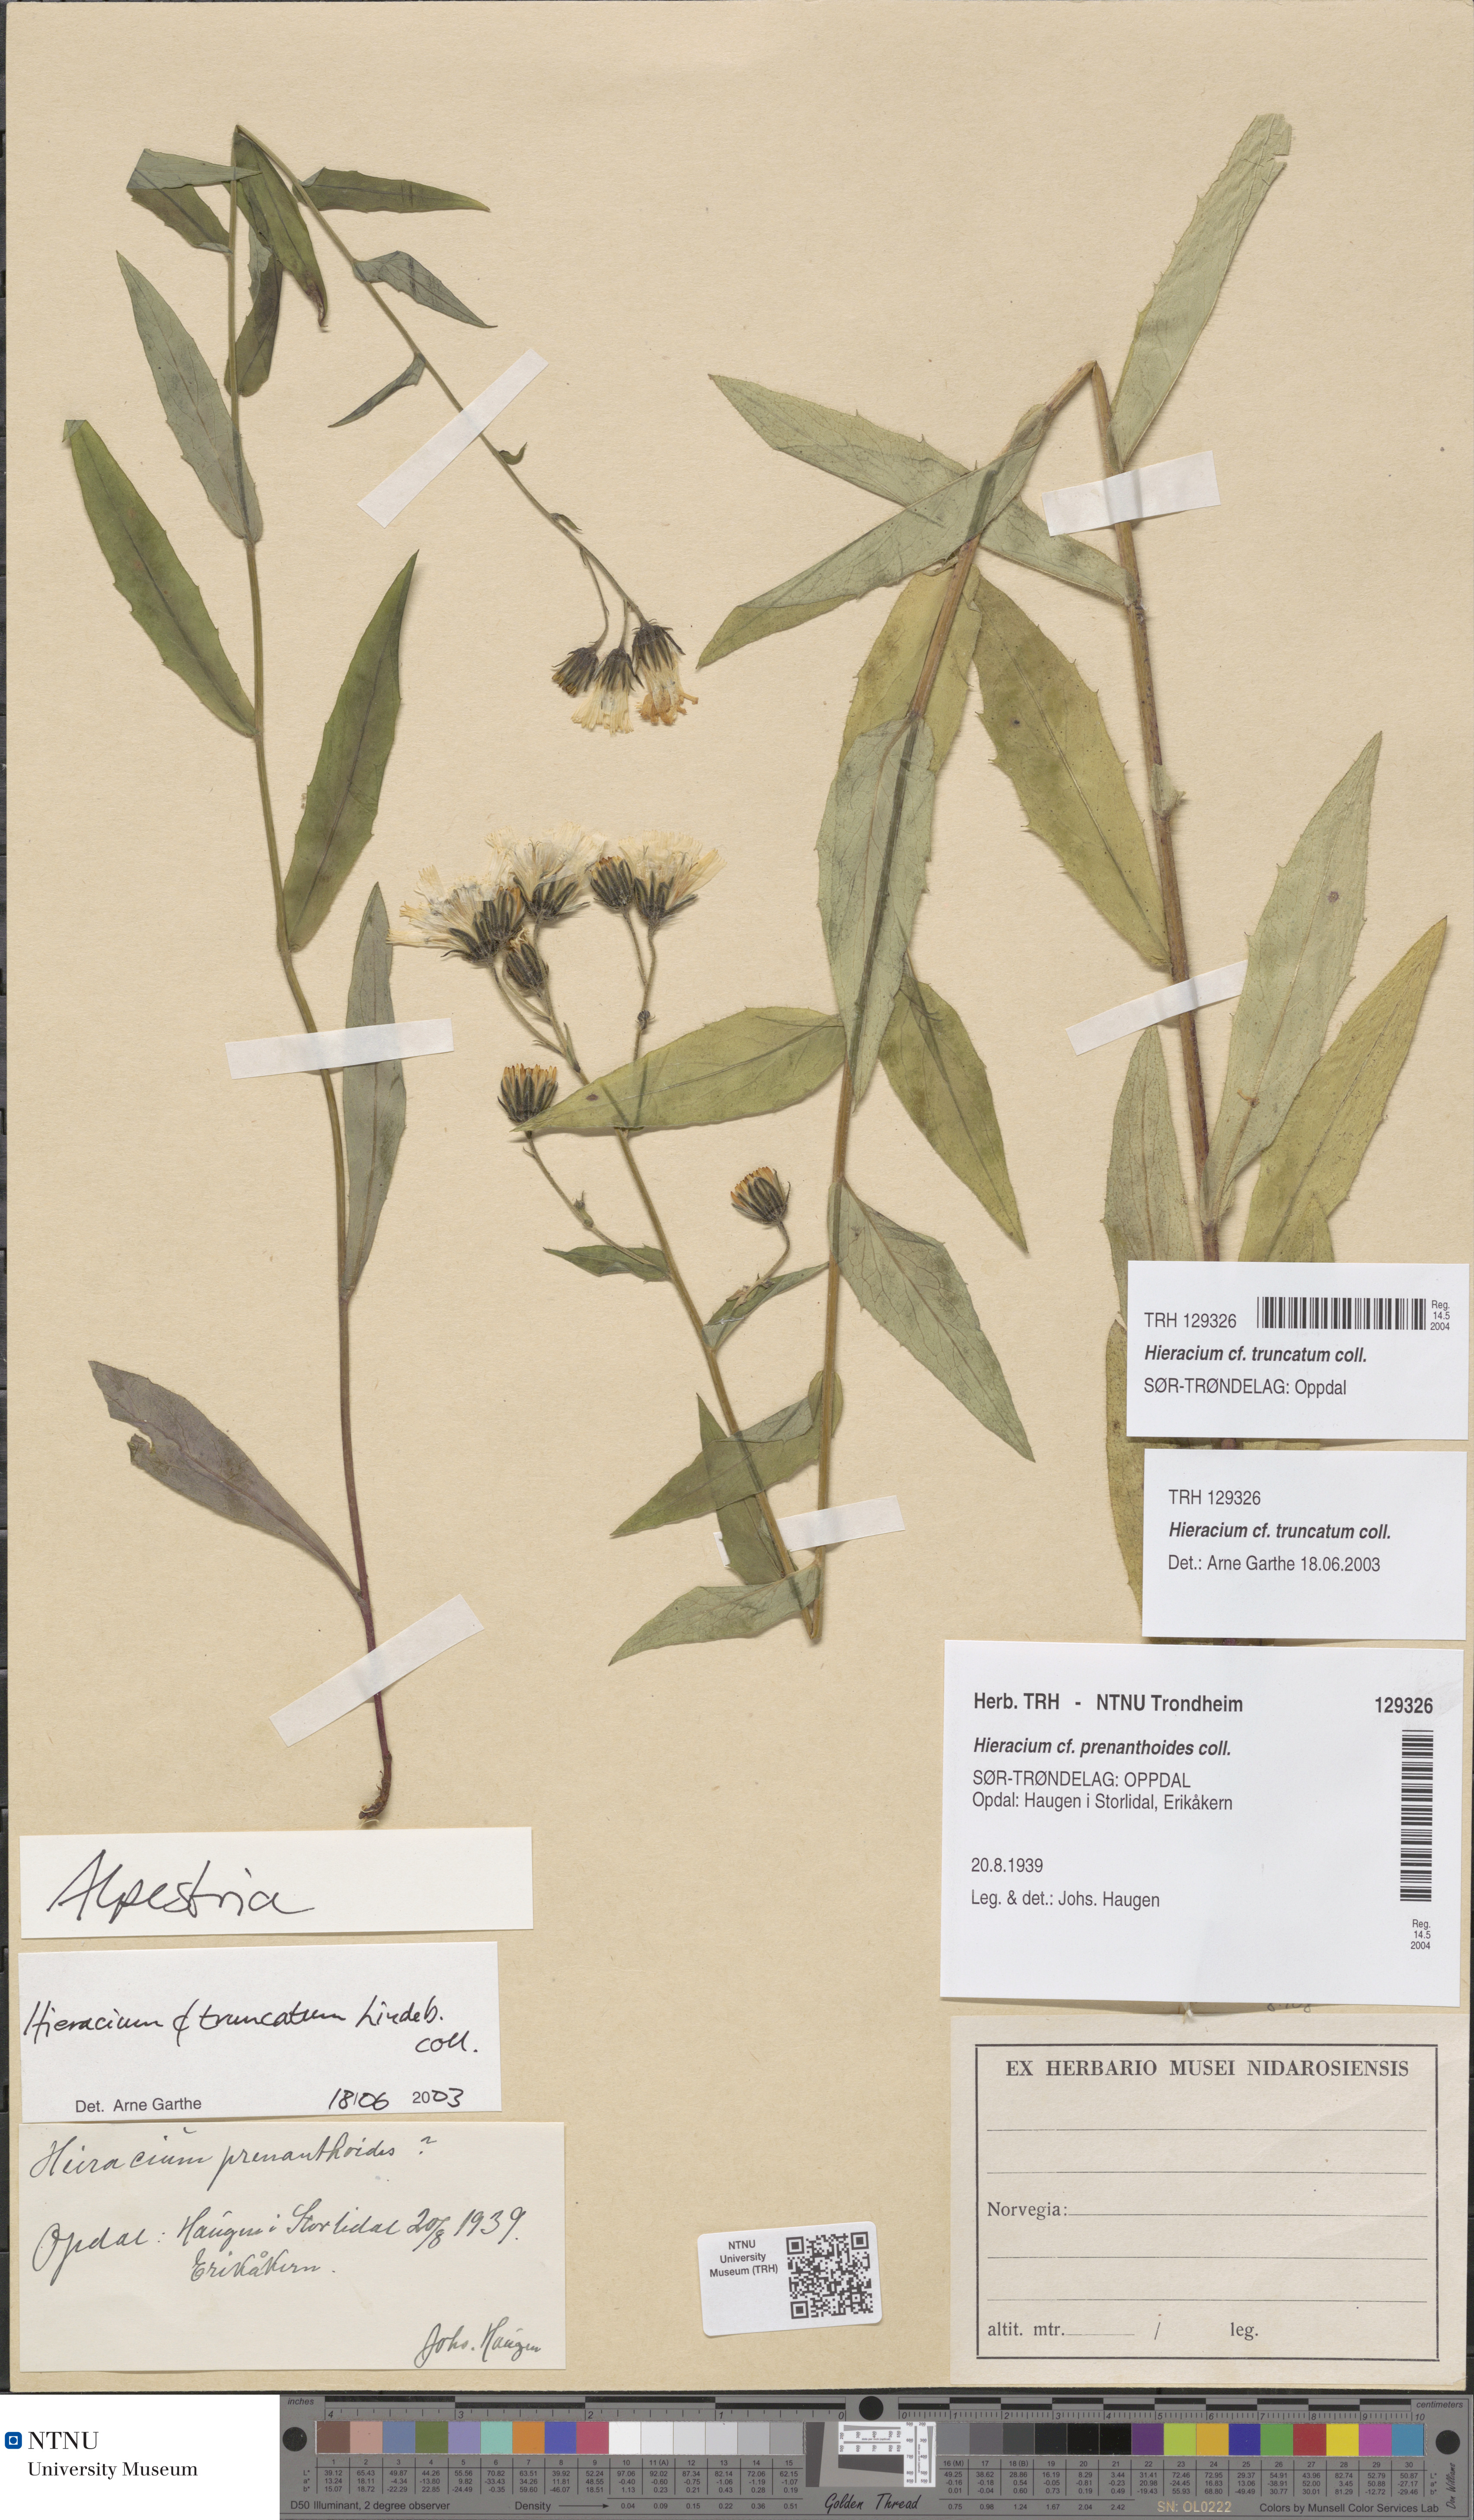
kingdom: Plantae
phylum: Tracheophyta
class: Magnoliopsida
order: Asterales
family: Asteraceae
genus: Hieracium
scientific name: Hieracium truncatum
